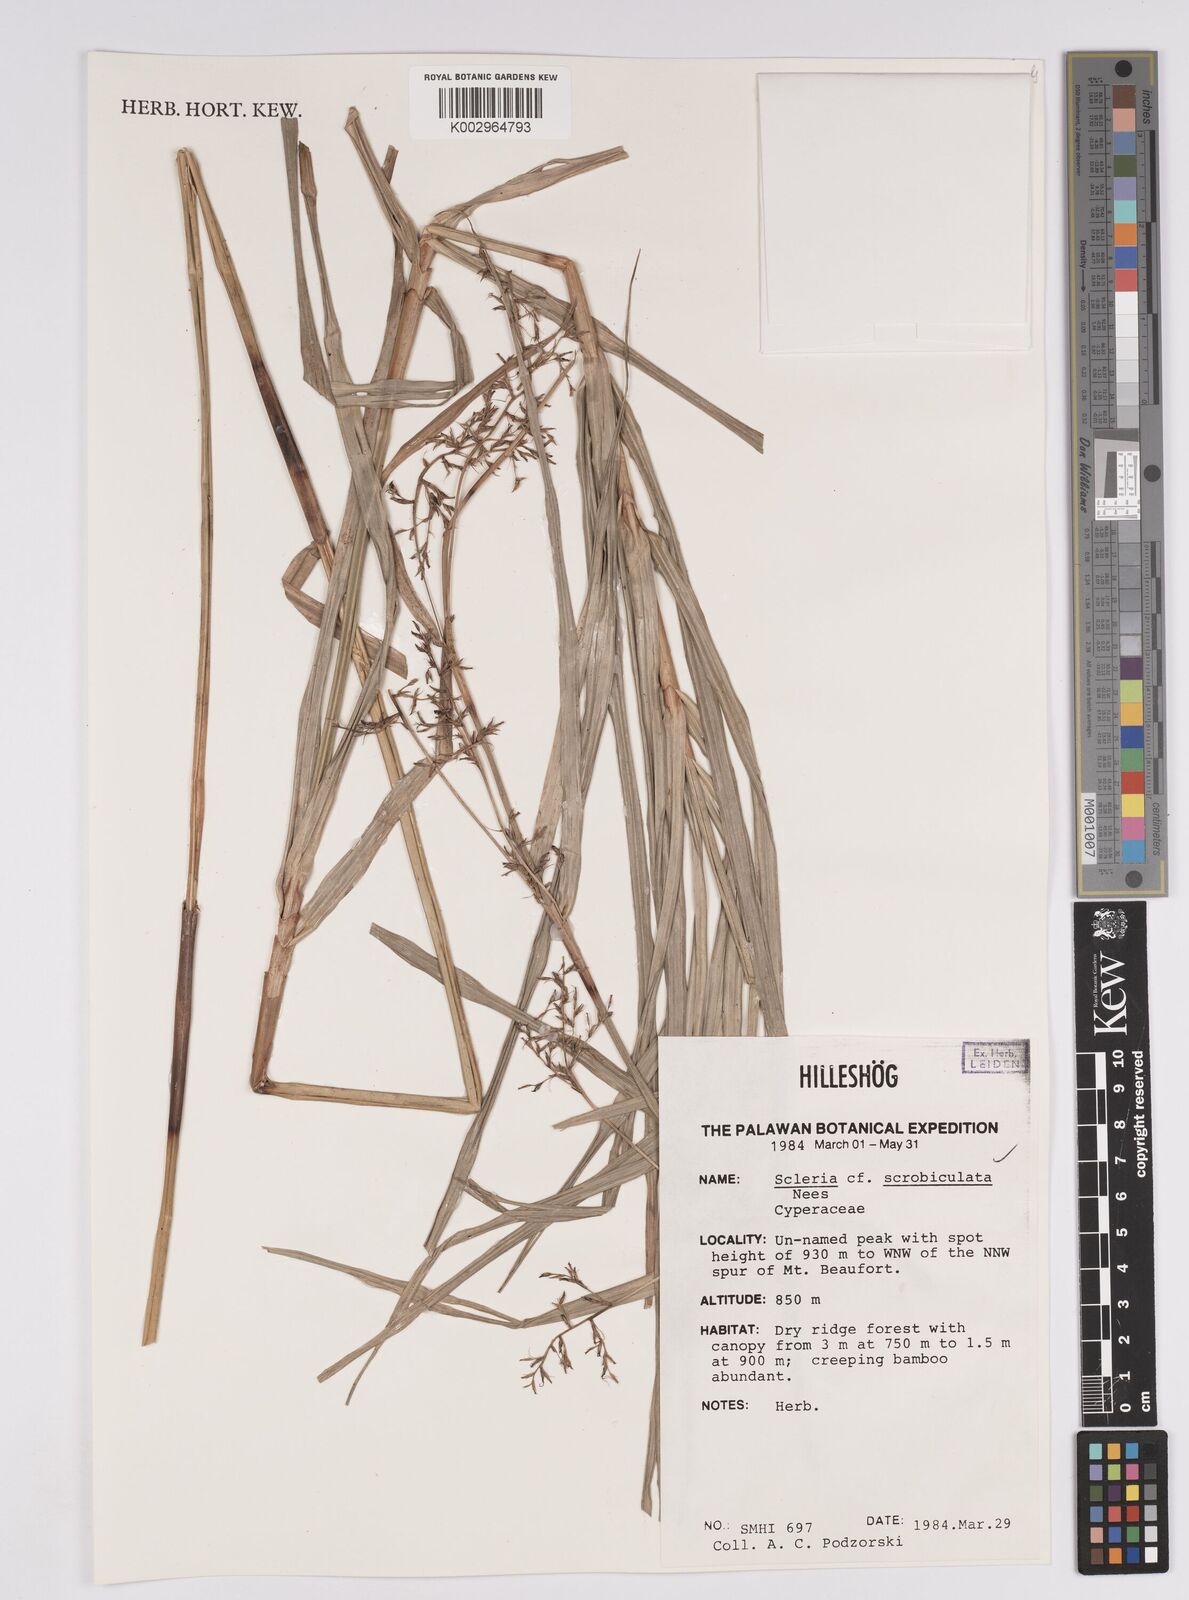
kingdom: Plantae
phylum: Tracheophyta
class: Liliopsida
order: Poales
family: Cyperaceae
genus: Scleria
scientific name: Scleria scrobiculata
